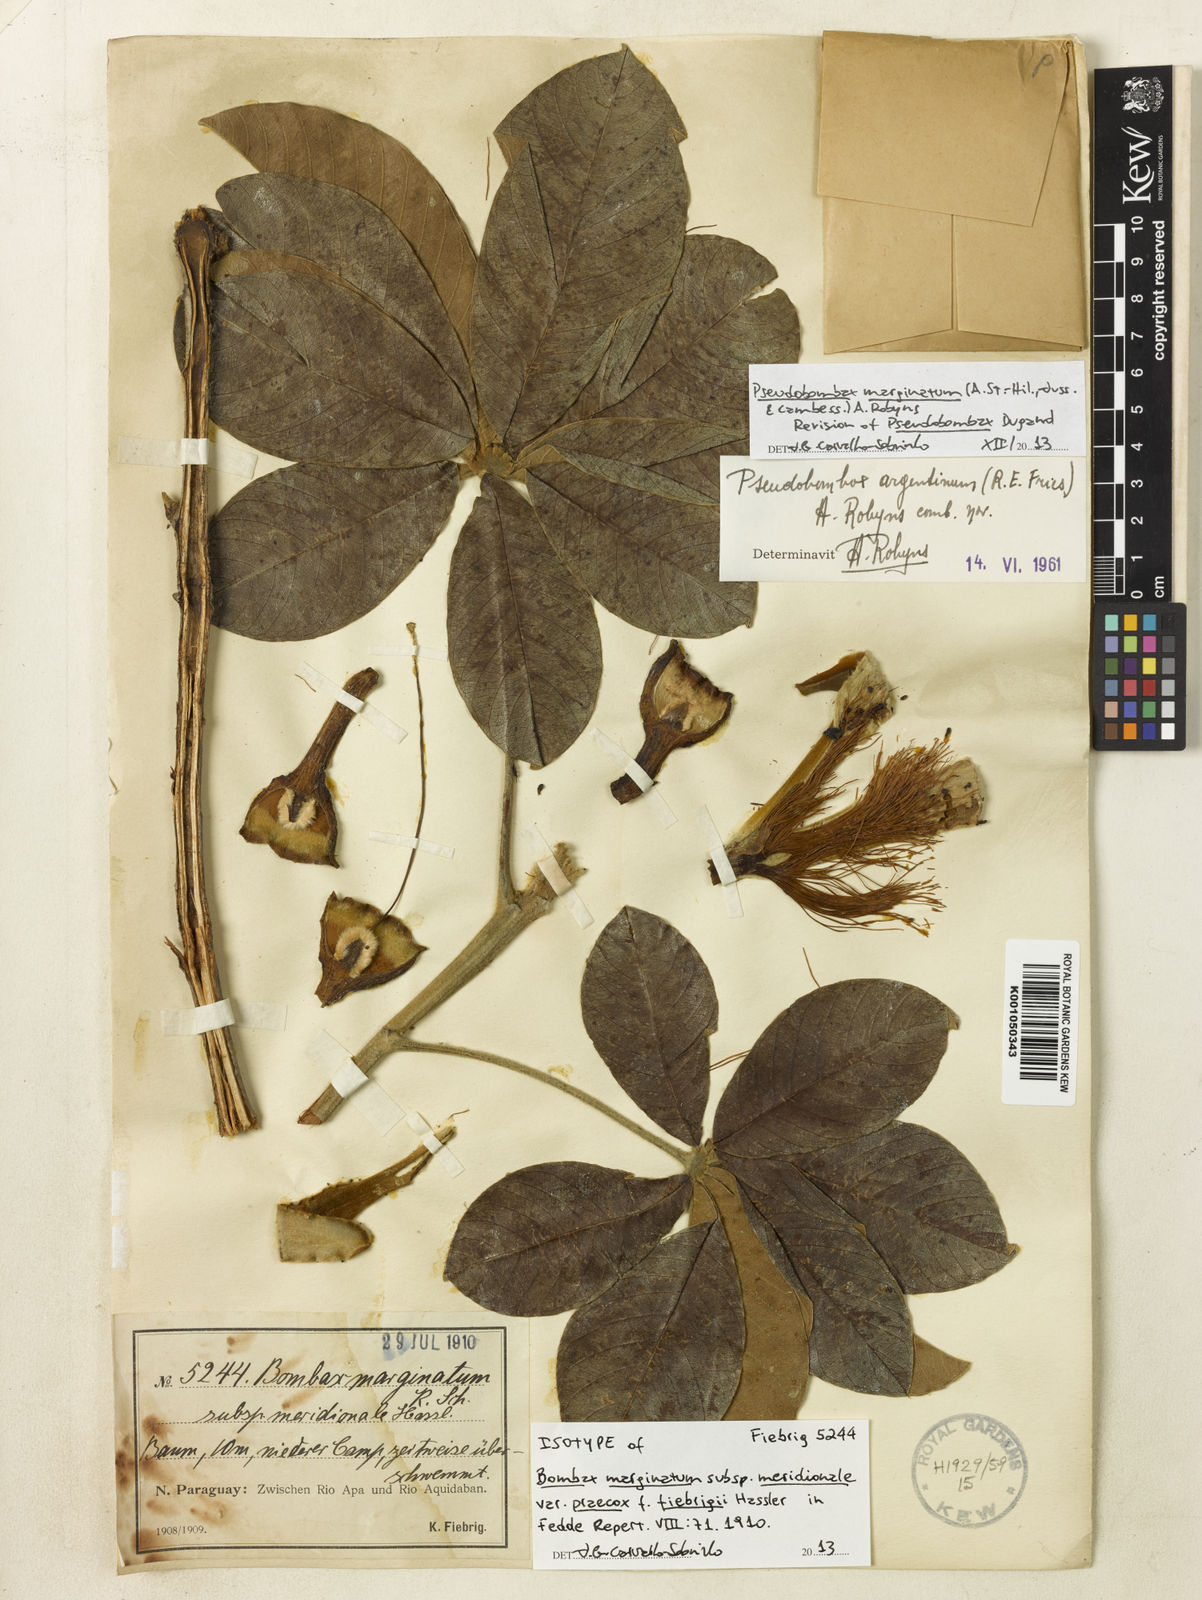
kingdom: Plantae
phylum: Tracheophyta
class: Magnoliopsida
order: Malvales
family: Malvaceae
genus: Pseudobombax
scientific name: Pseudobombax argentinum
